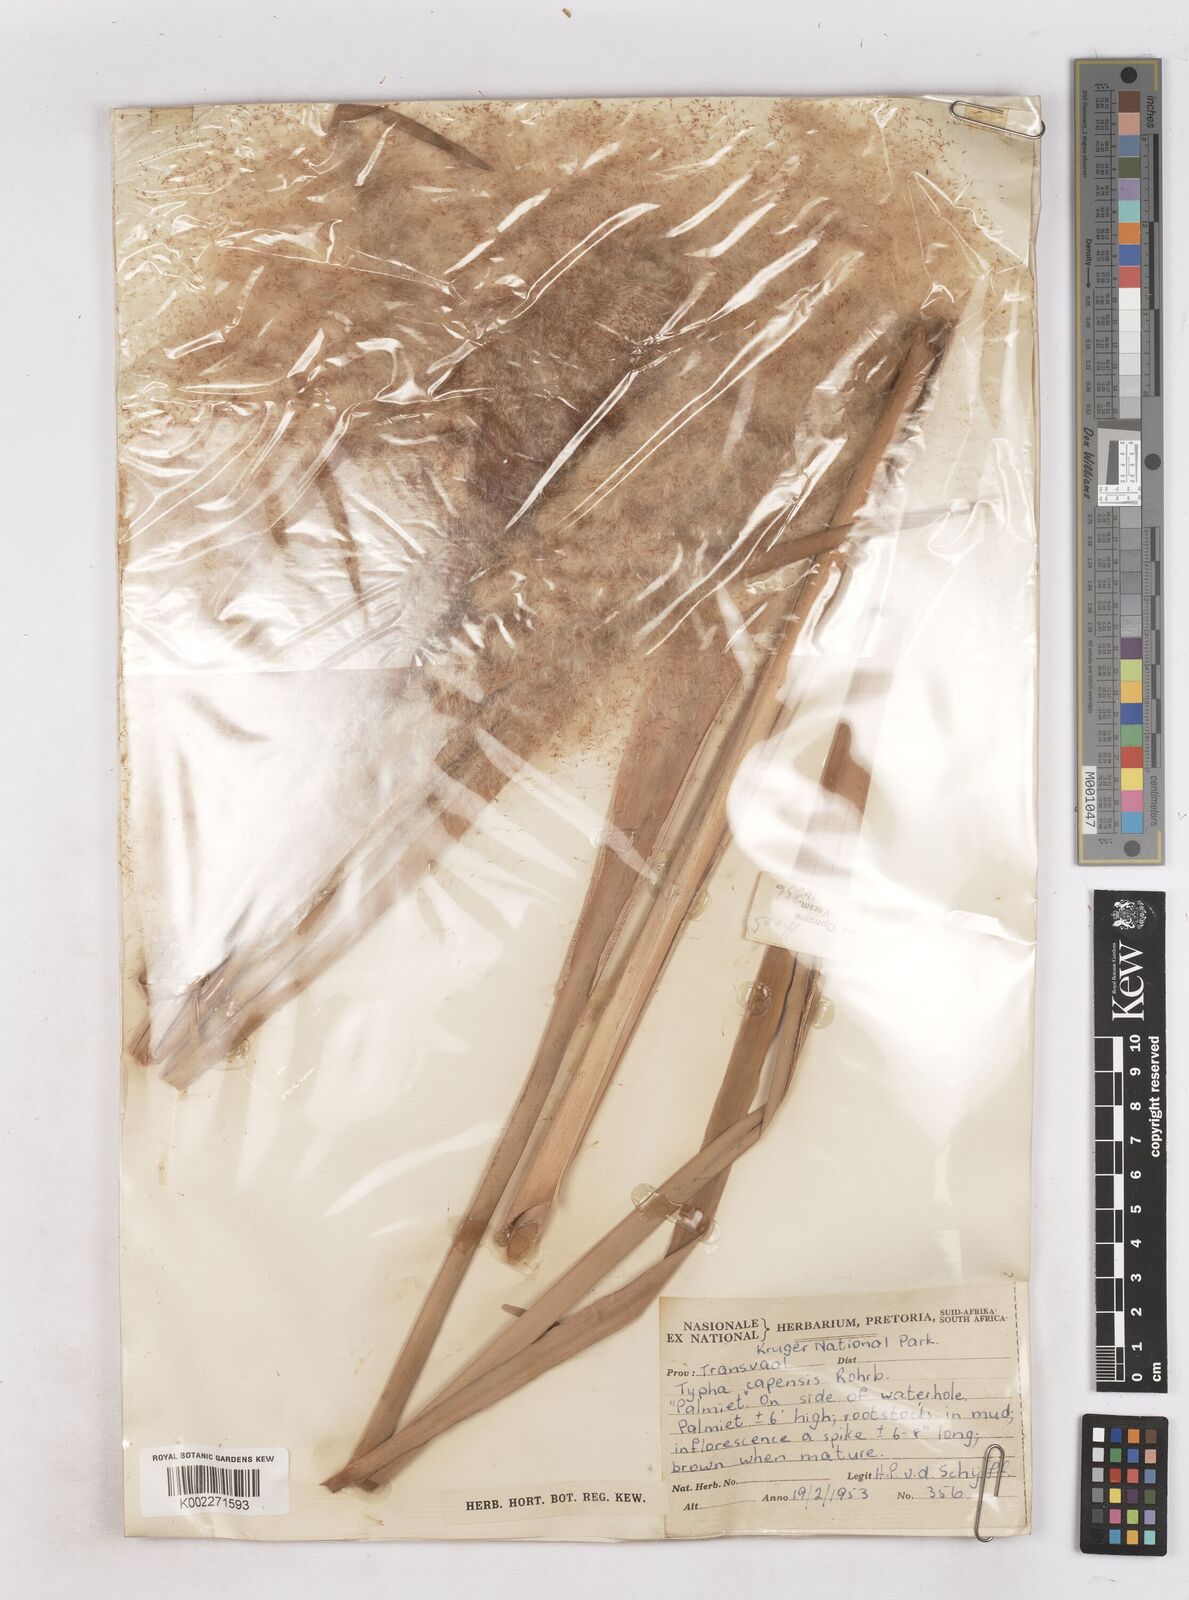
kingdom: Plantae
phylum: Tracheophyta
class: Liliopsida
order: Poales
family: Typhaceae
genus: Typha
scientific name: Typha capensis
